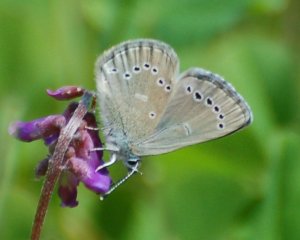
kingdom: Animalia
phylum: Arthropoda
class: Insecta
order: Lepidoptera
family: Lycaenidae
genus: Glaucopsyche
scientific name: Glaucopsyche lygdamus
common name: Silvery Blue
